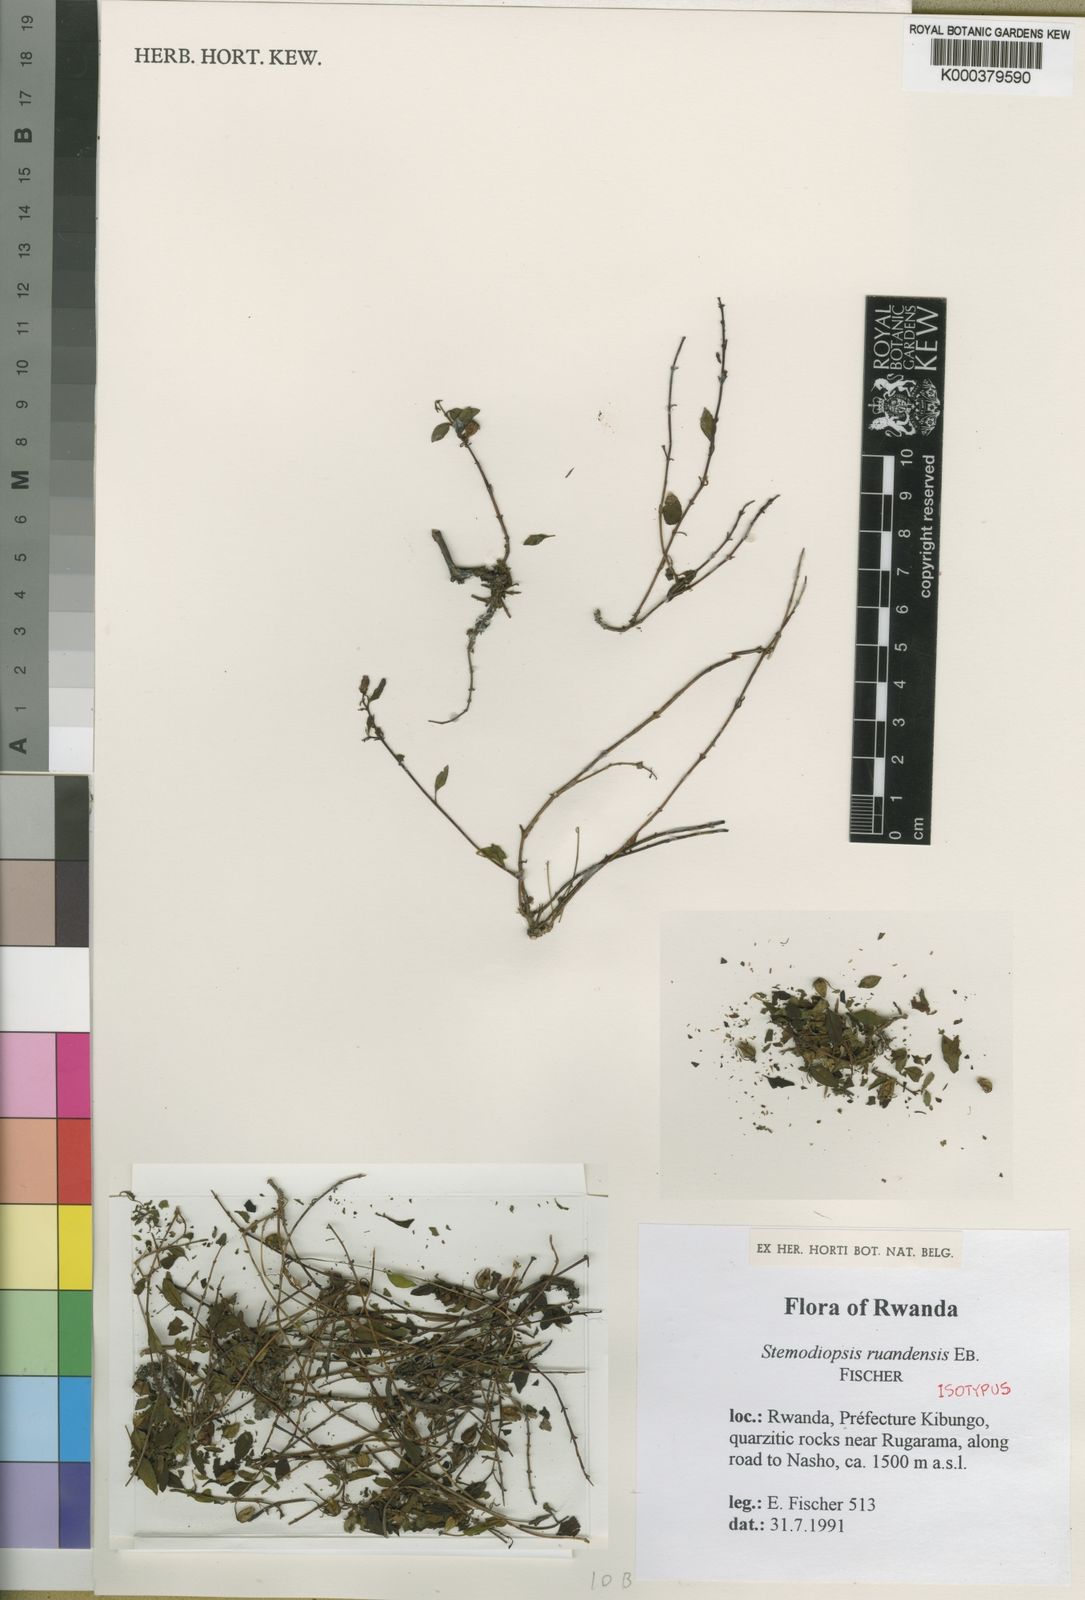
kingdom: Plantae
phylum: Tracheophyta
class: Magnoliopsida
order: Lamiales
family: Linderniaceae
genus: Stemodiopsis
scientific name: Stemodiopsis ruandensis
